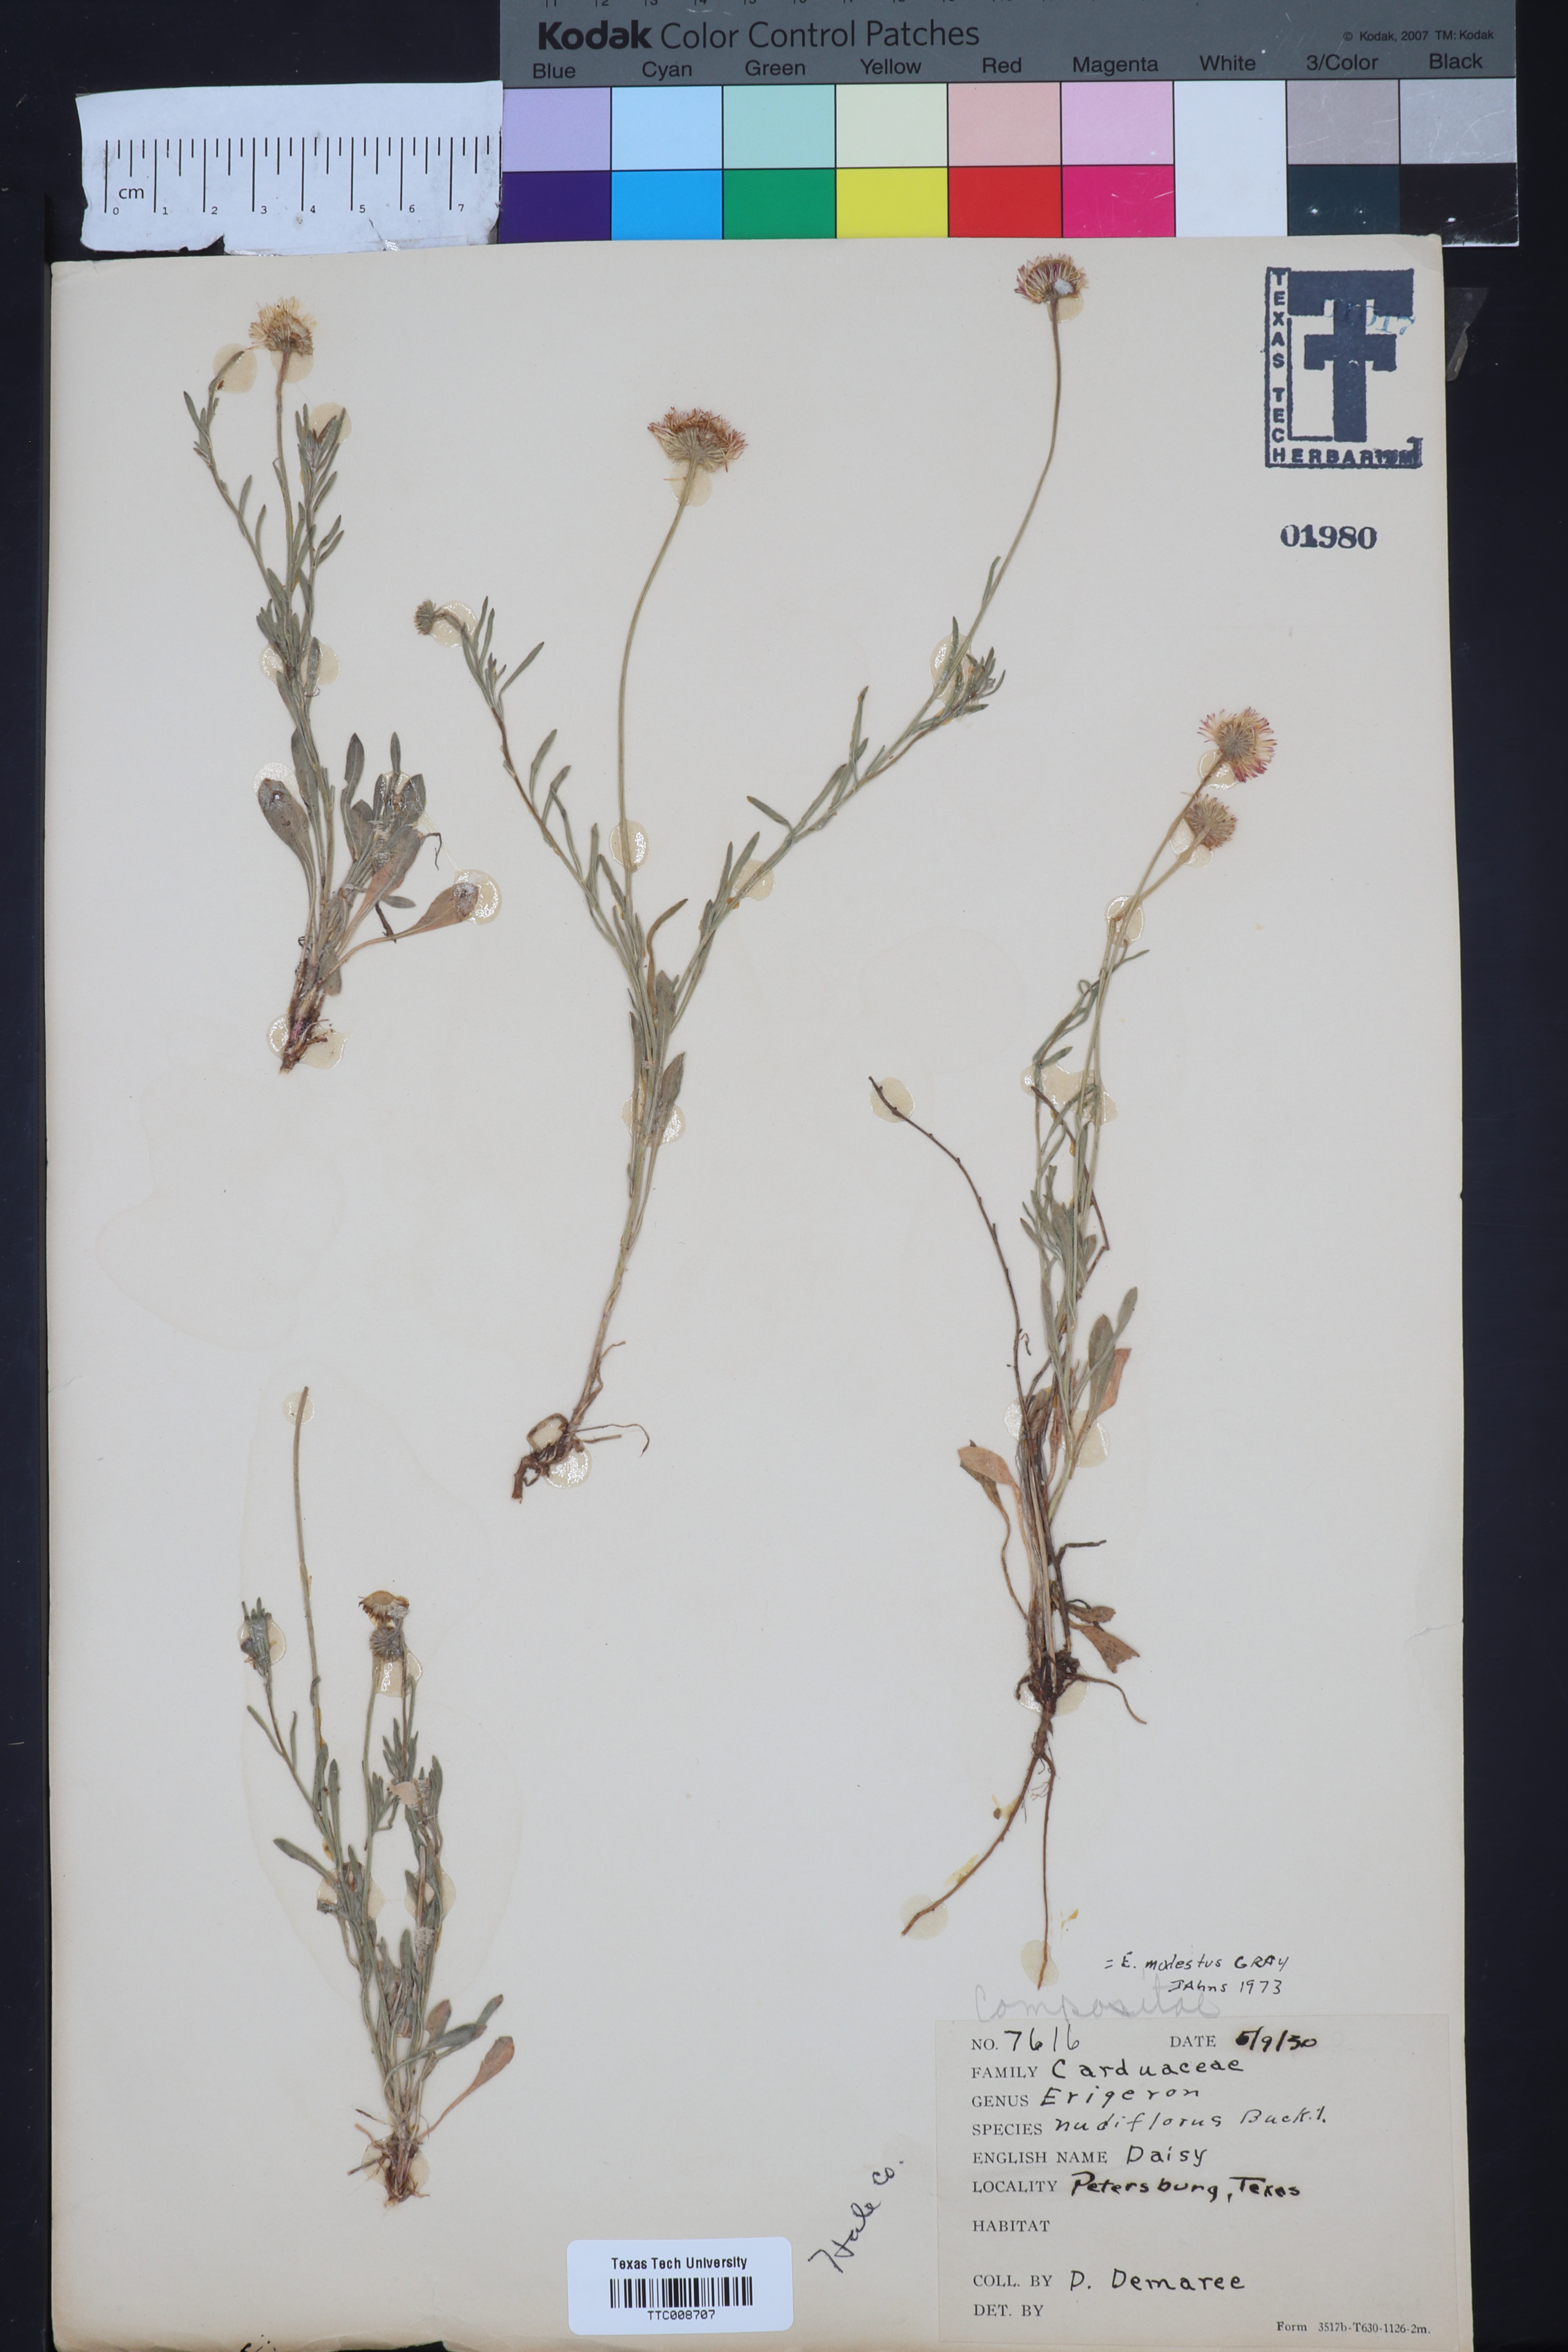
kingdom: Plantae
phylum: Tracheophyta
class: Magnoliopsida
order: Asterales
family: Asteraceae
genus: Erigeron
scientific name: Erigeron modestus
